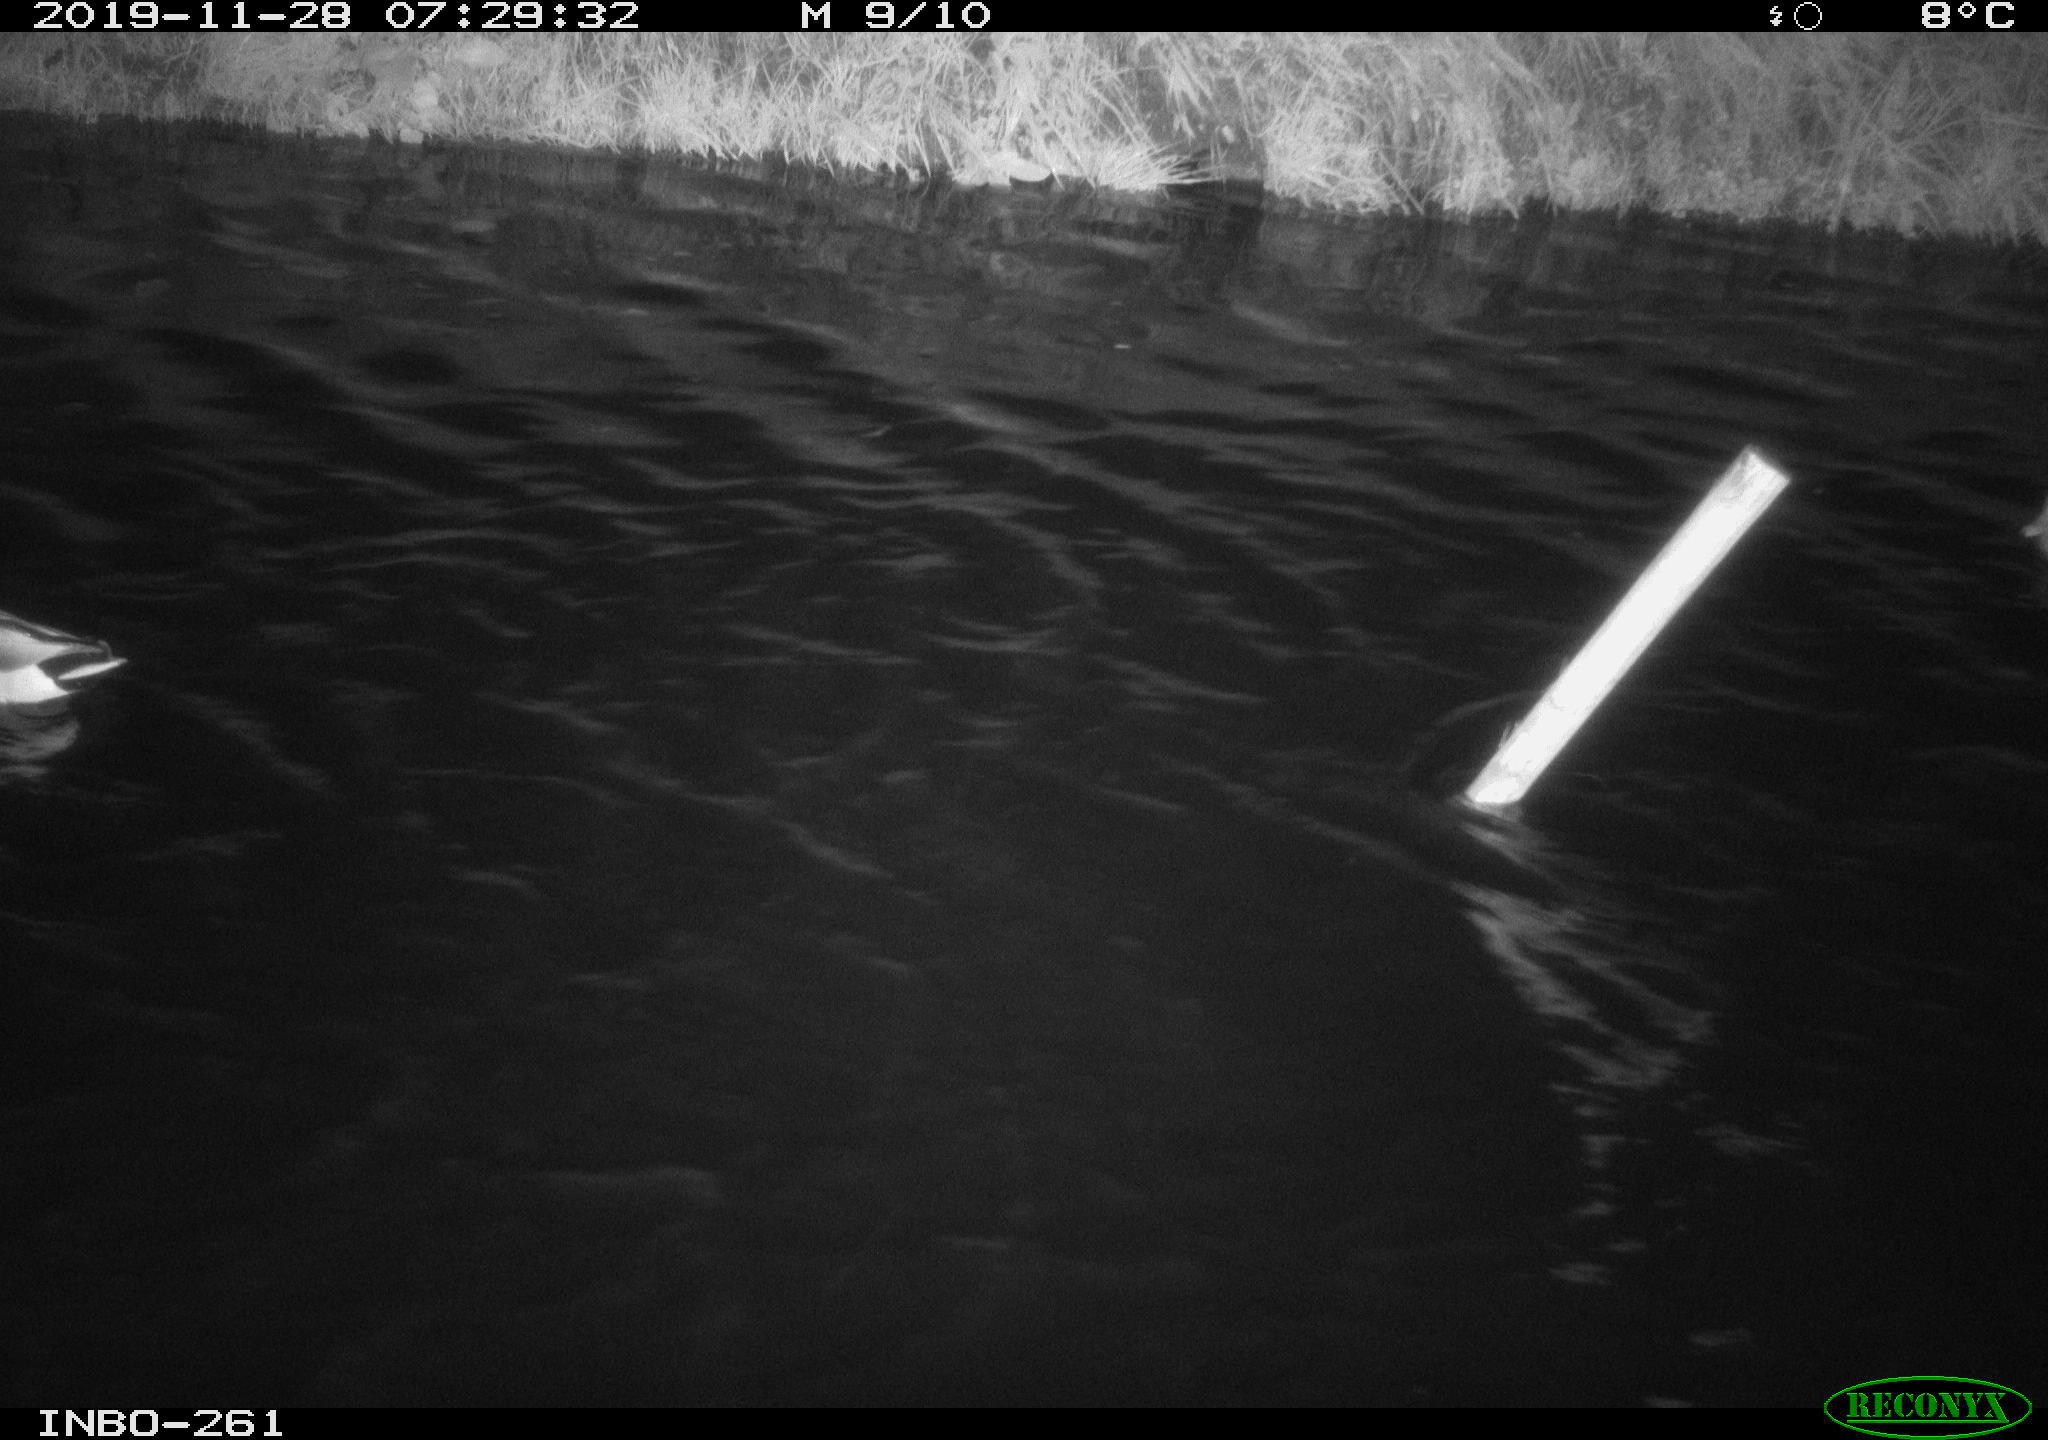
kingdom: Animalia
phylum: Chordata
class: Aves
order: Anseriformes
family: Anatidae
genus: Anas
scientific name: Anas platyrhynchos
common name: Mallard
